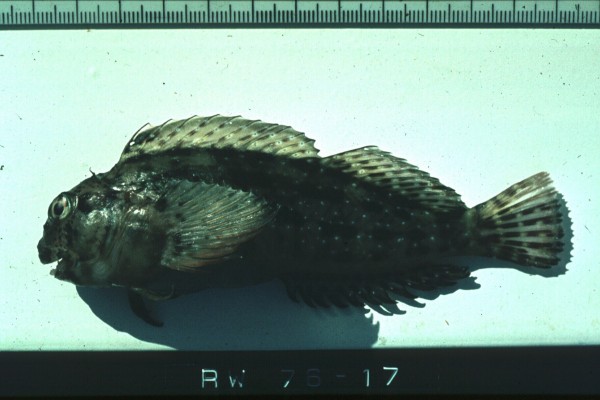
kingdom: Animalia
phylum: Chordata
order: Perciformes
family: Blenniidae
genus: Cirripectes
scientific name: Cirripectes
